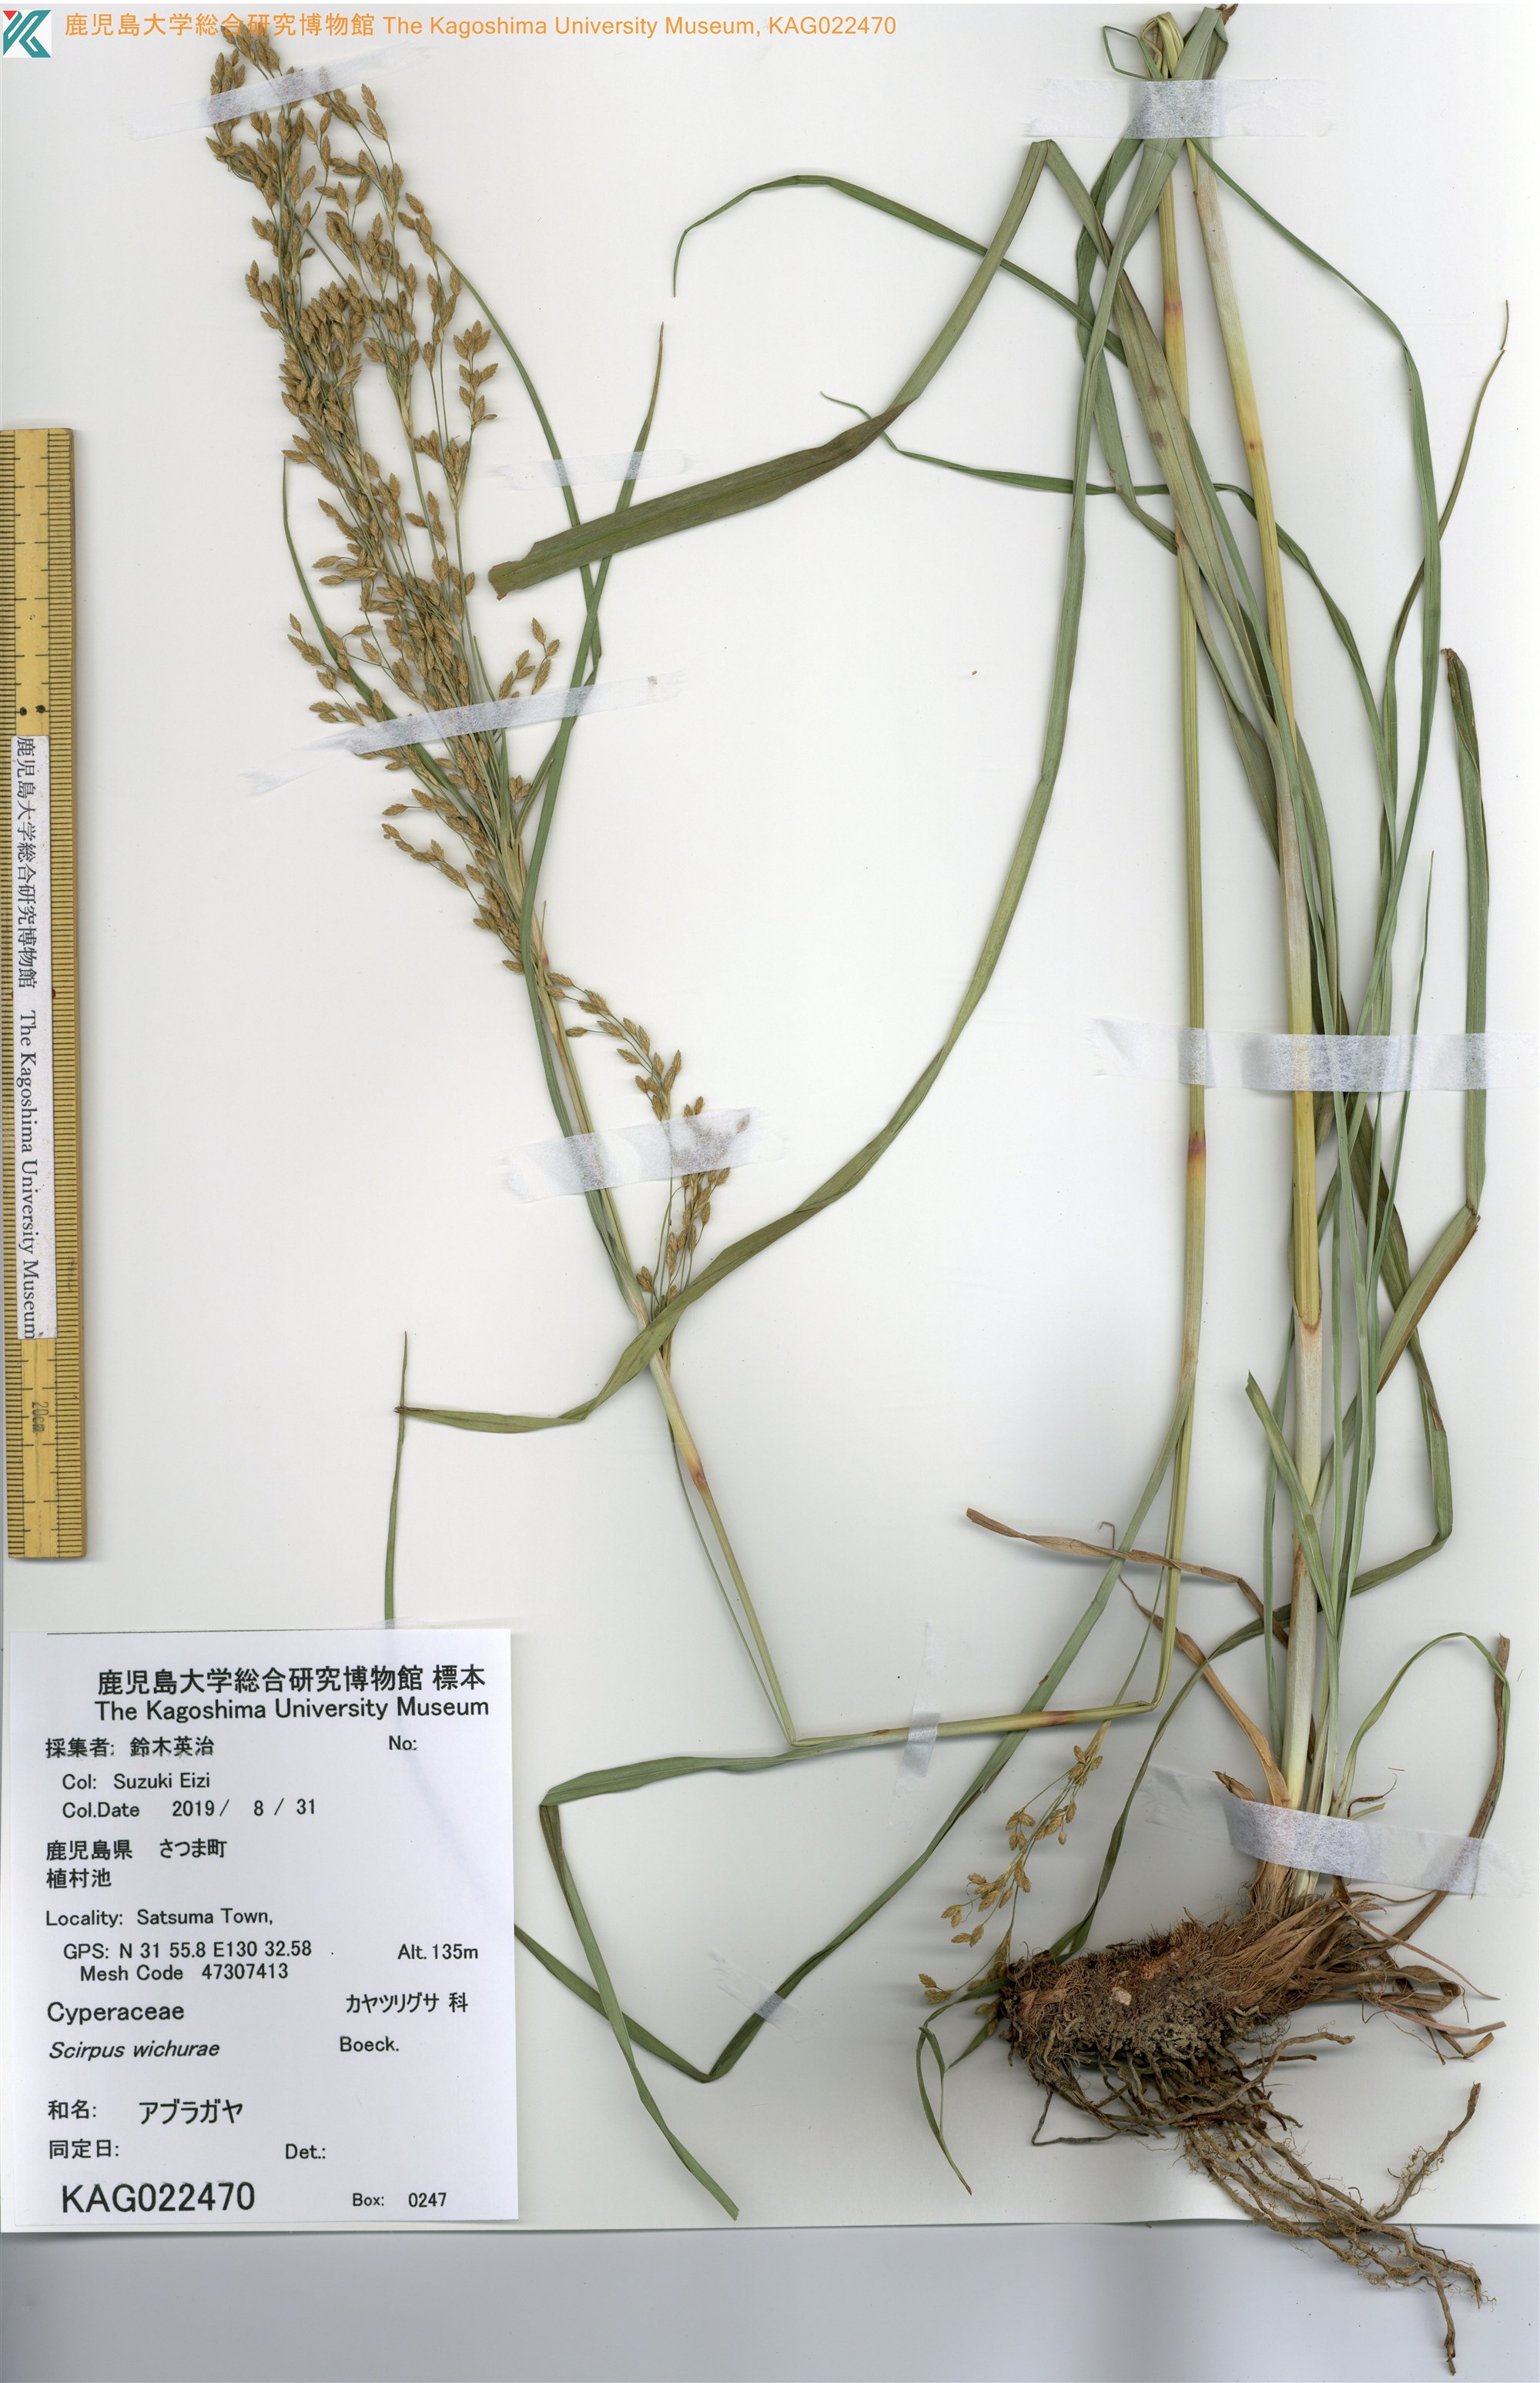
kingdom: Plantae
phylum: Tracheophyta
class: Liliopsida
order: Poales
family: Cyperaceae
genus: Scirpus
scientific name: Scirpus wichurae
